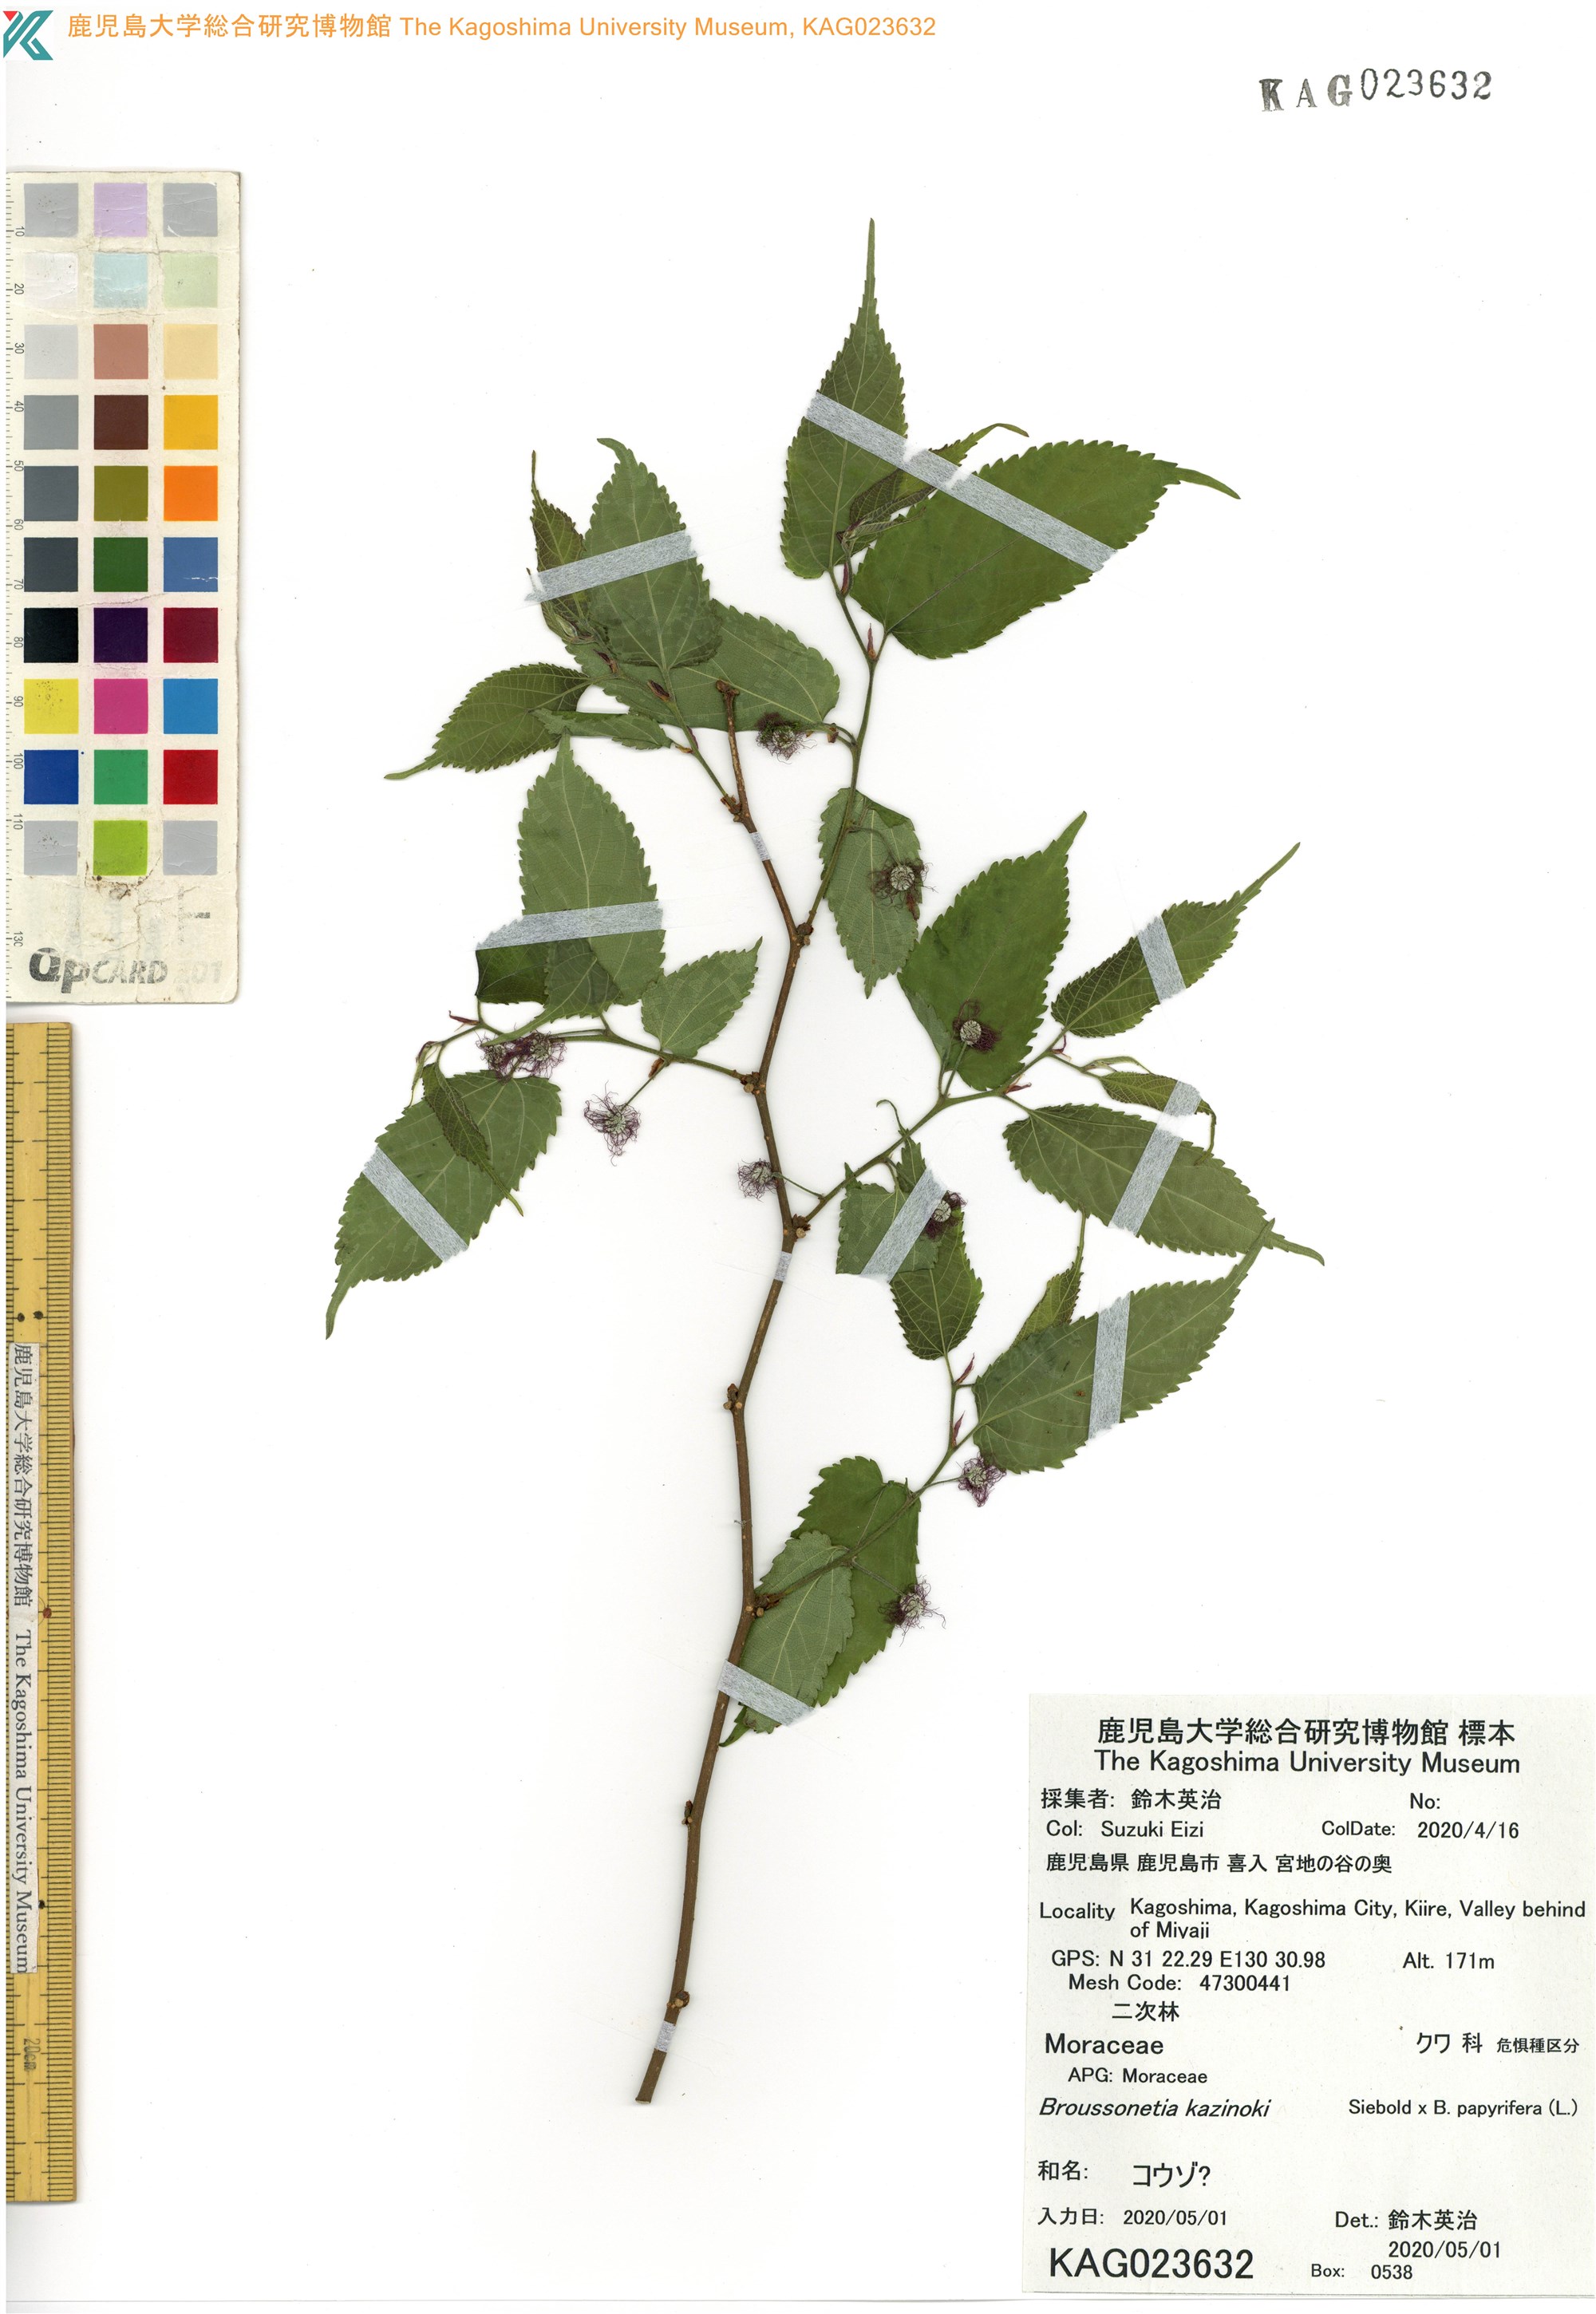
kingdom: Plantae
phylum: Tracheophyta
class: Magnoliopsida
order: Rosales
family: Moraceae
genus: Broussonetia
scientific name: Broussonetia monoica
